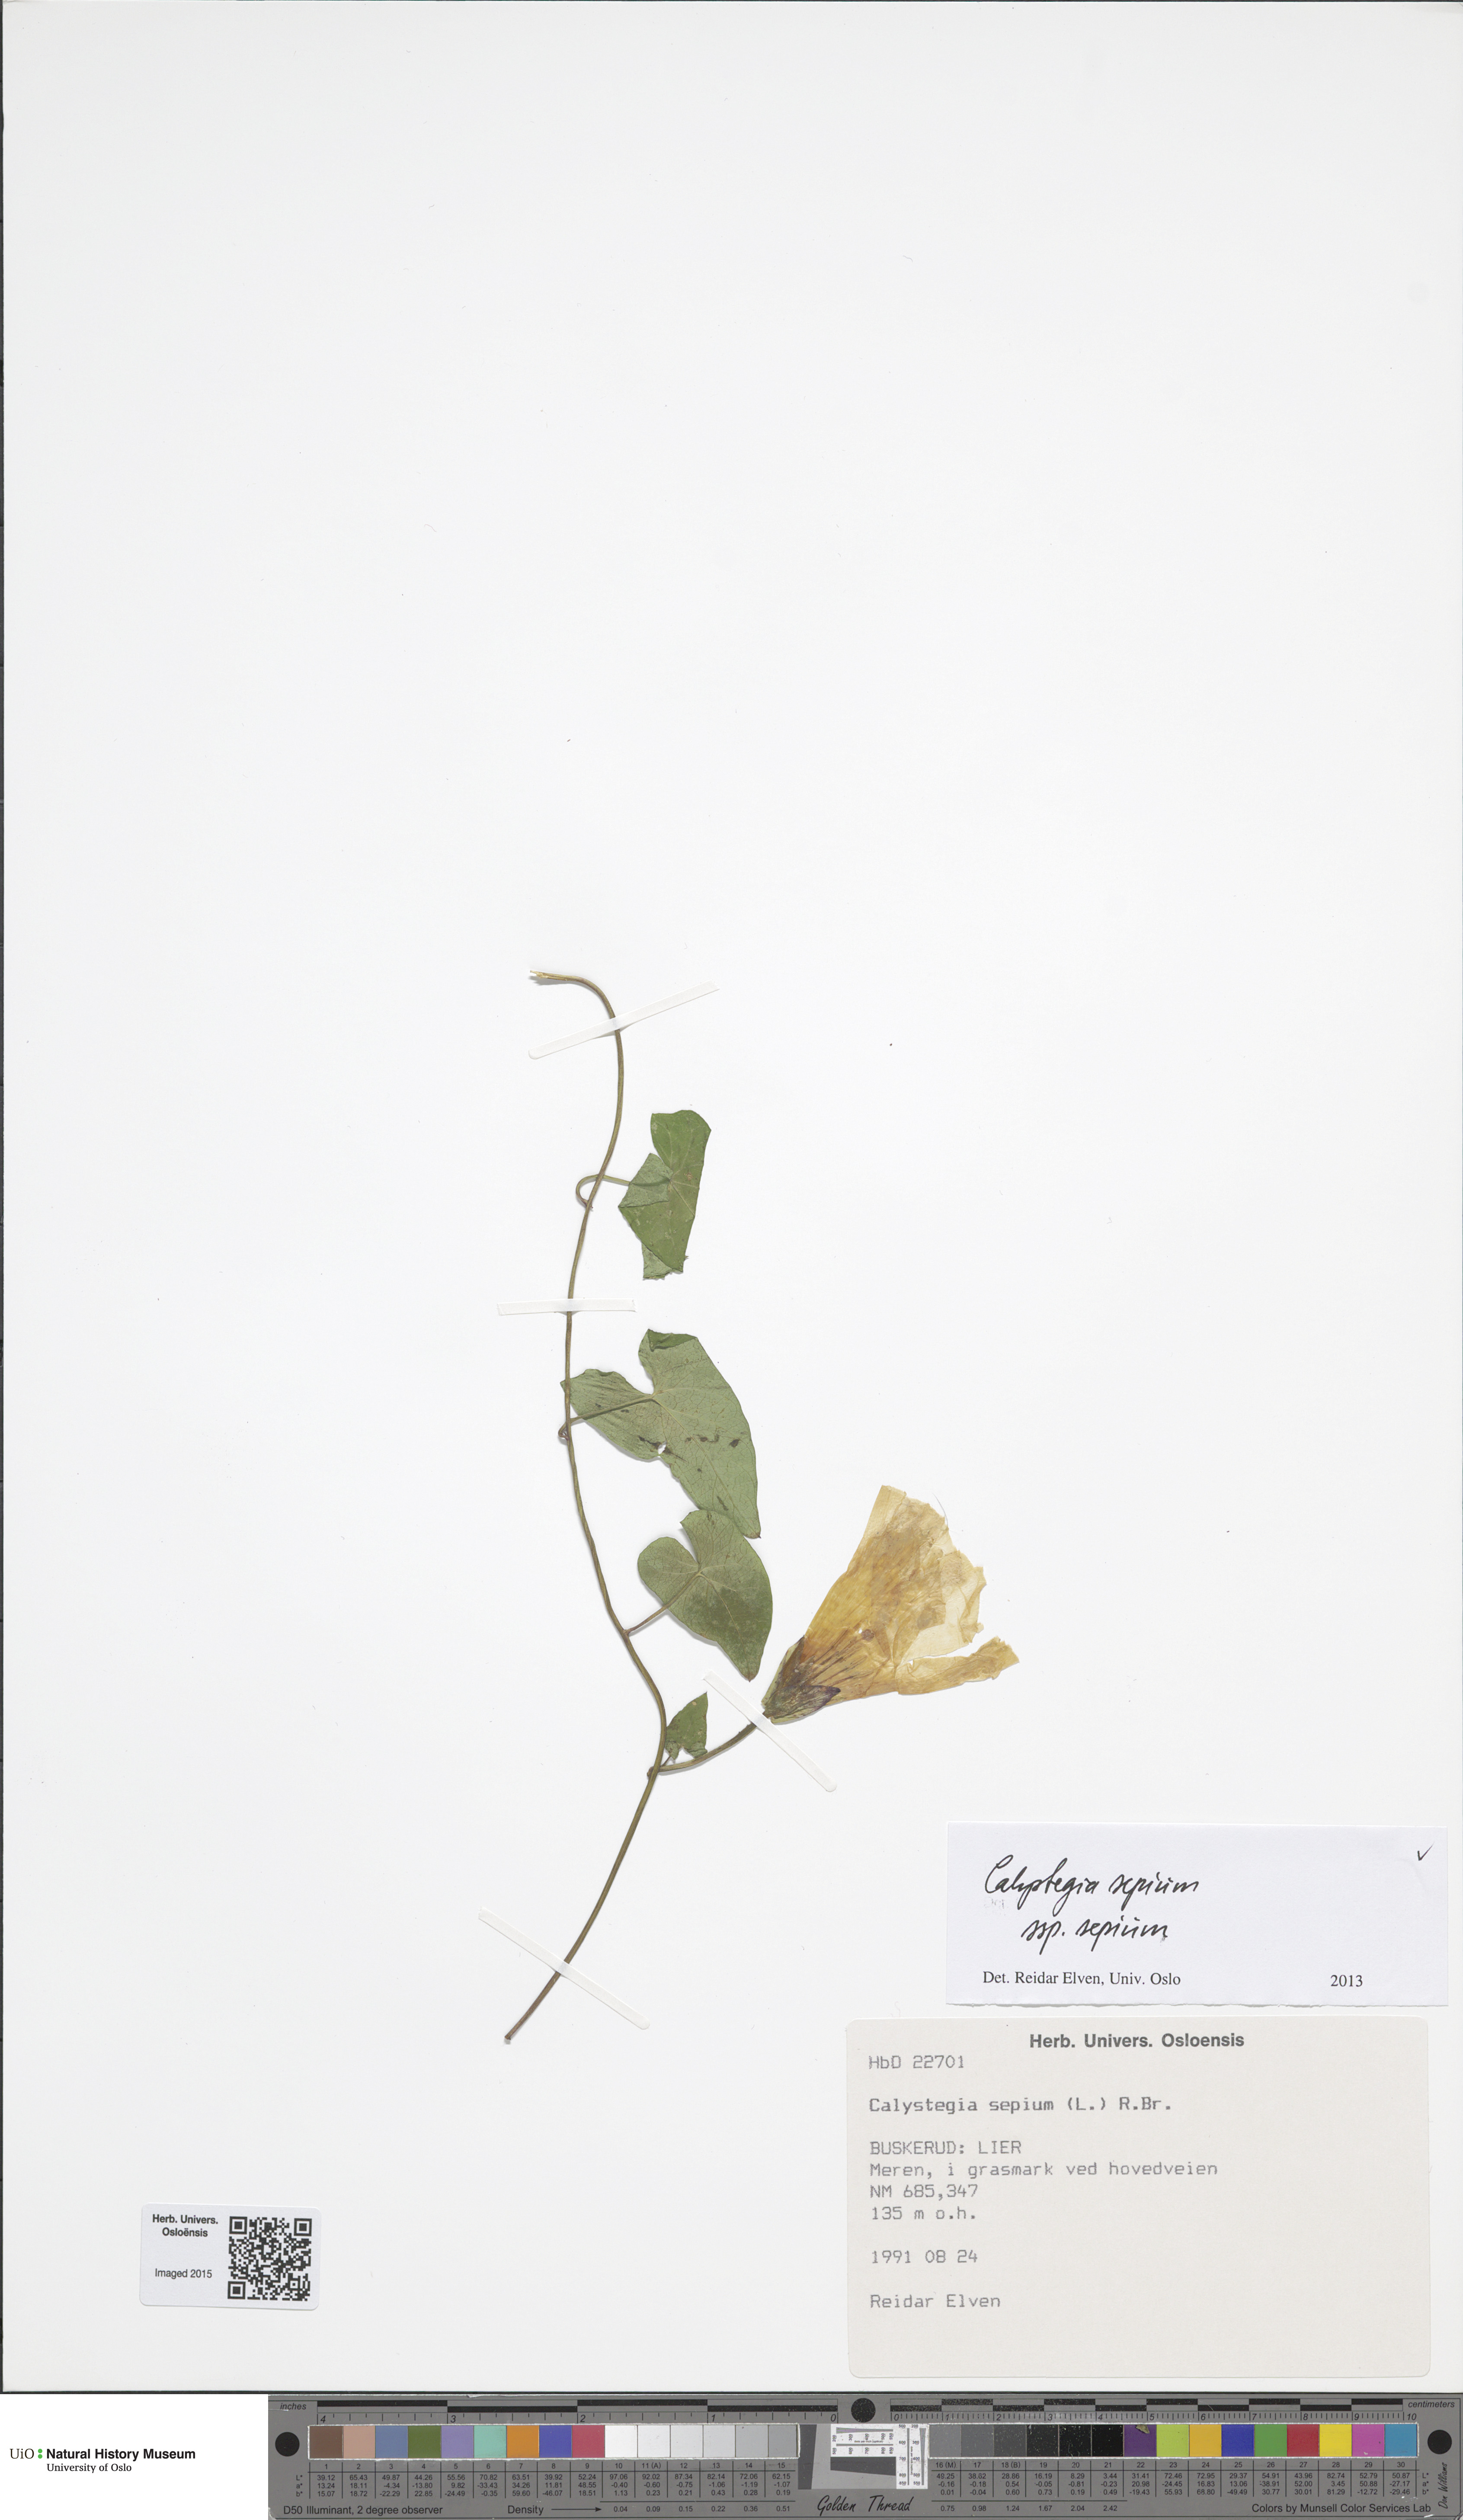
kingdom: Plantae
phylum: Tracheophyta
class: Magnoliopsida
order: Solanales
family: Convolvulaceae
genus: Calystegia
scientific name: Calystegia sepium
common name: Hedge bindweed
